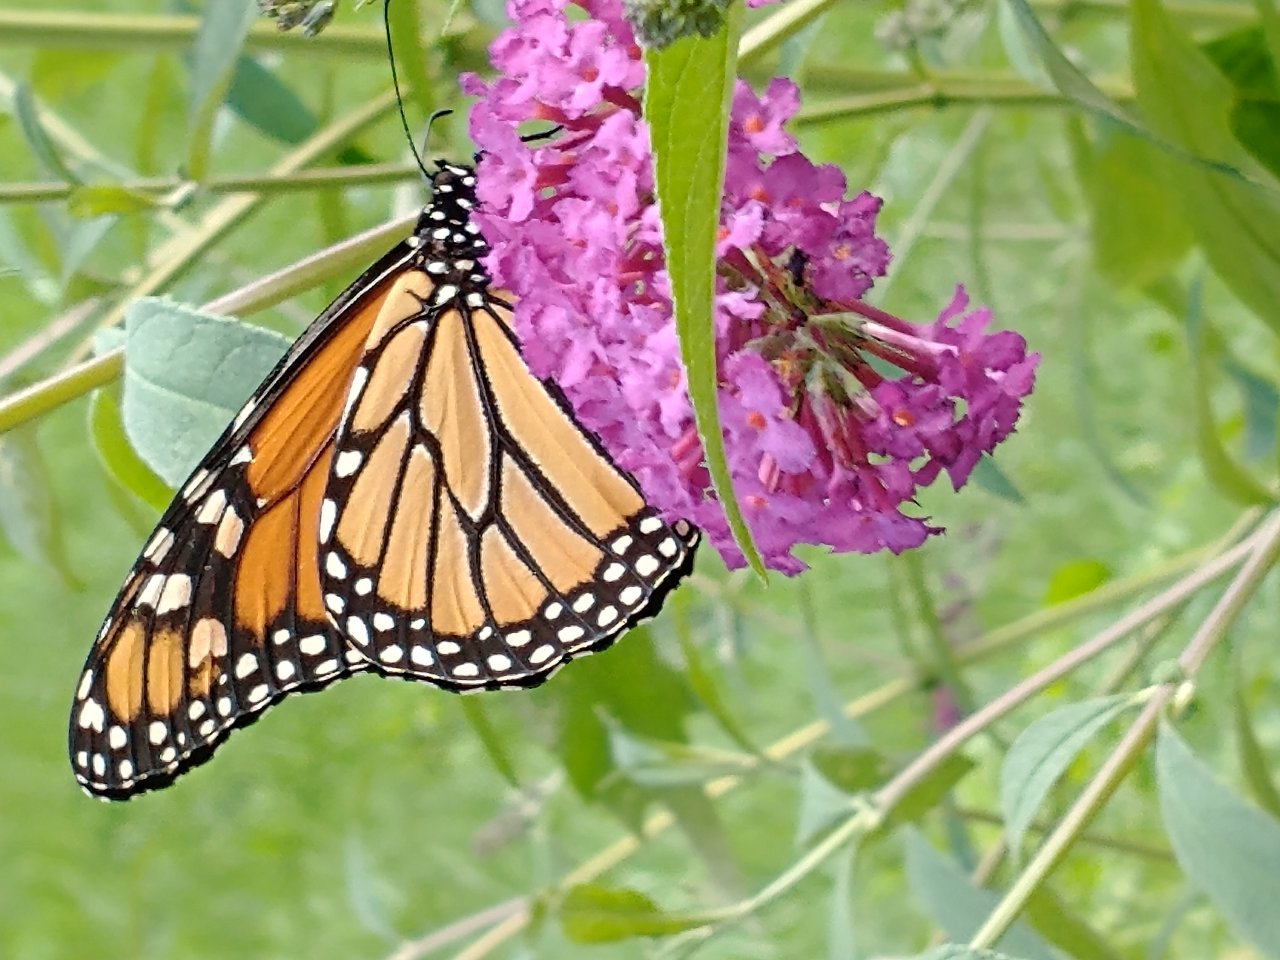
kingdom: Animalia
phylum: Arthropoda
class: Insecta
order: Lepidoptera
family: Nymphalidae
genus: Danaus
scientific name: Danaus plexippus
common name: Monarch
